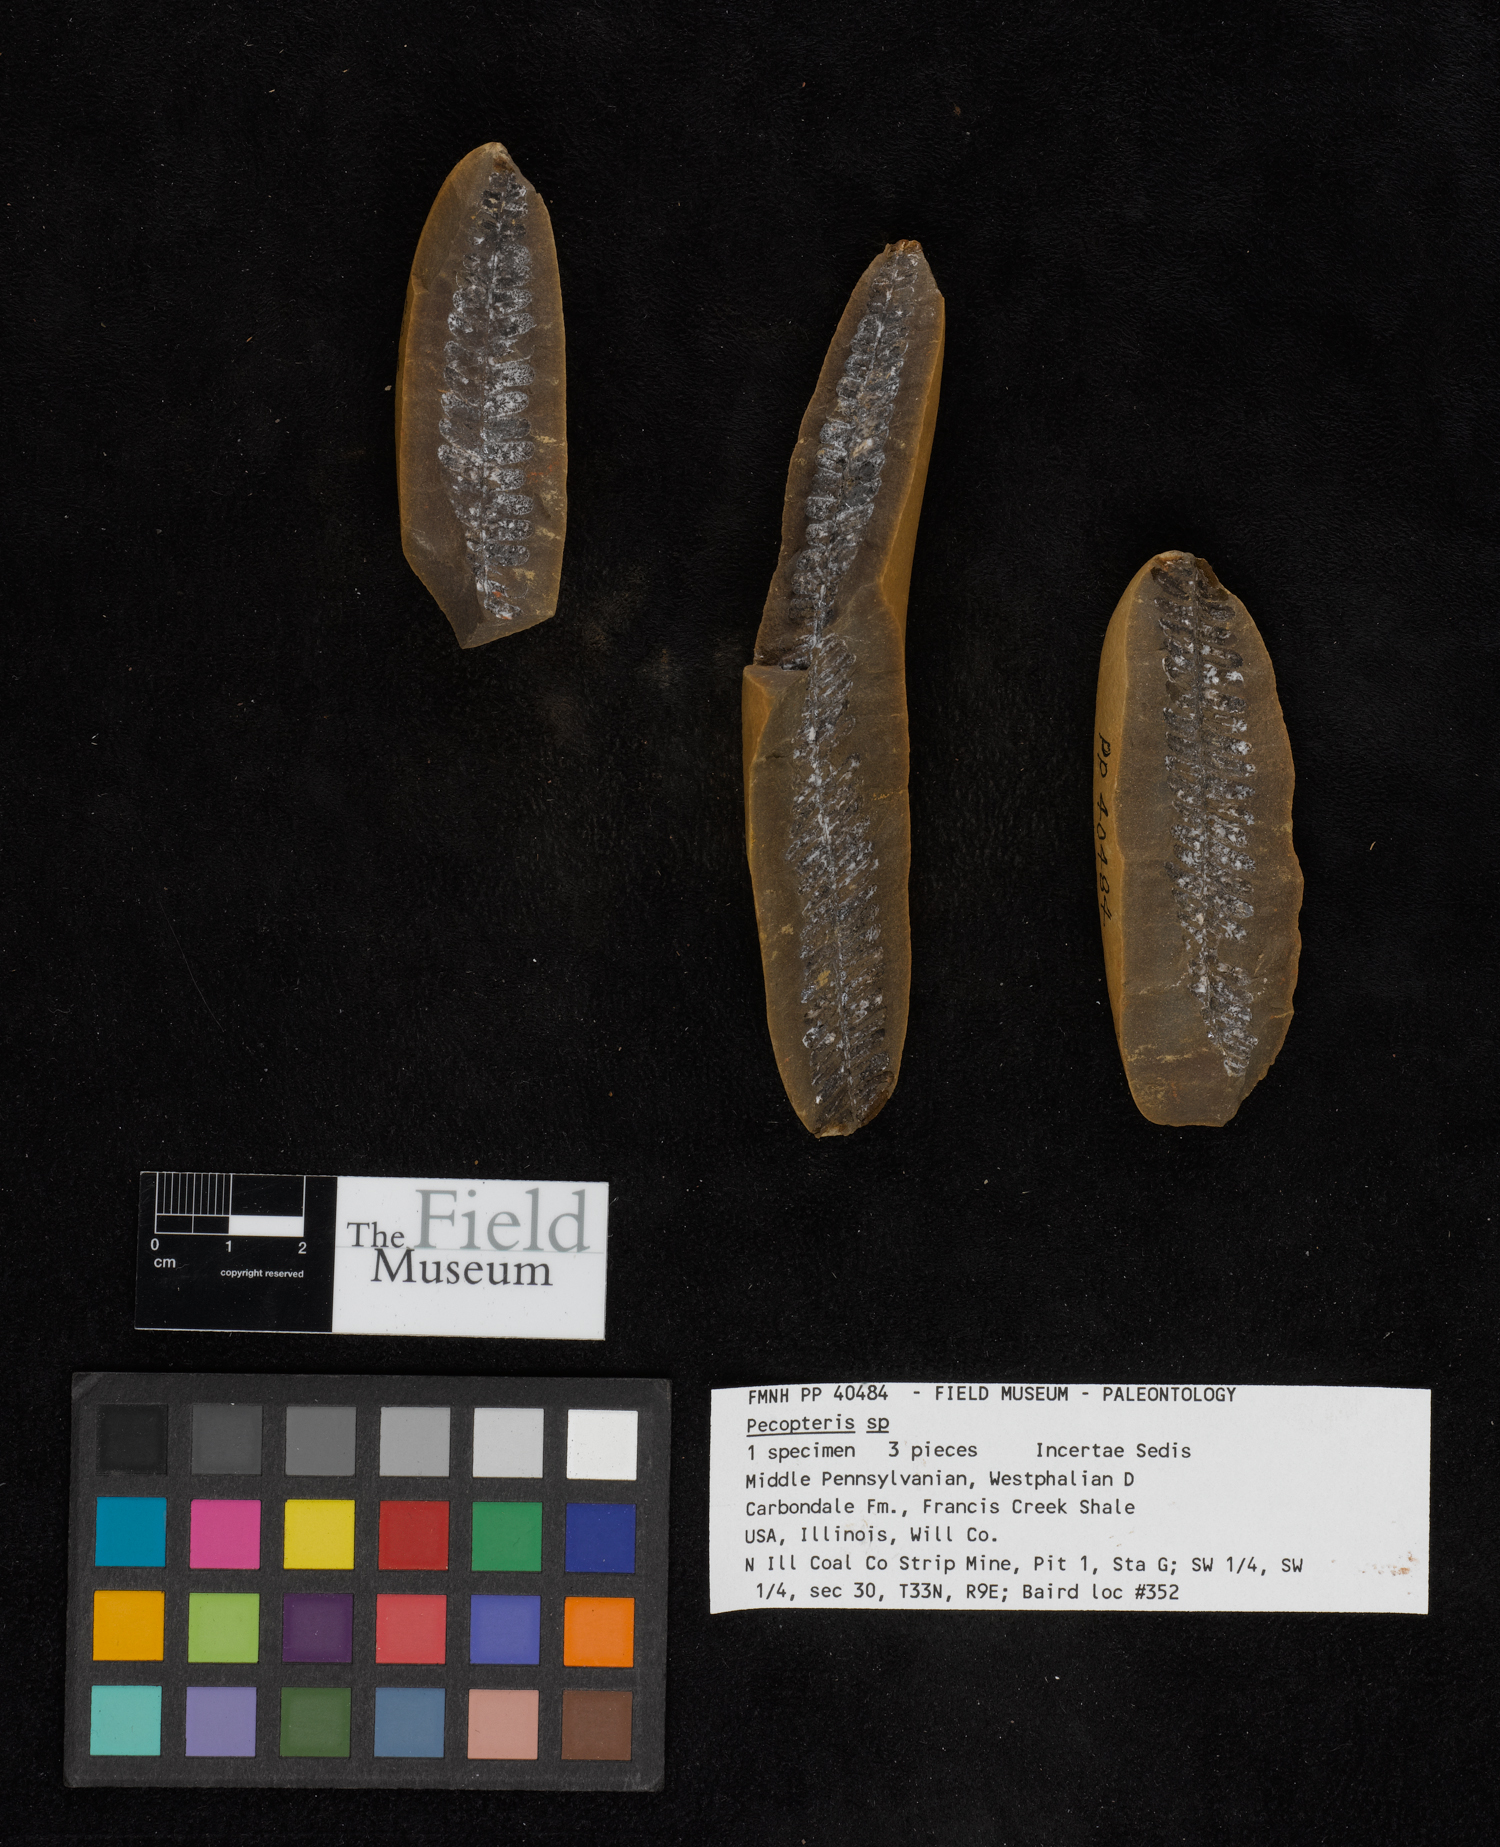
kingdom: Plantae
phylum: Tracheophyta
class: Polypodiopsida
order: Marattiales
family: Asterothecaceae
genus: Pecopteris
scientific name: Pecopteris
